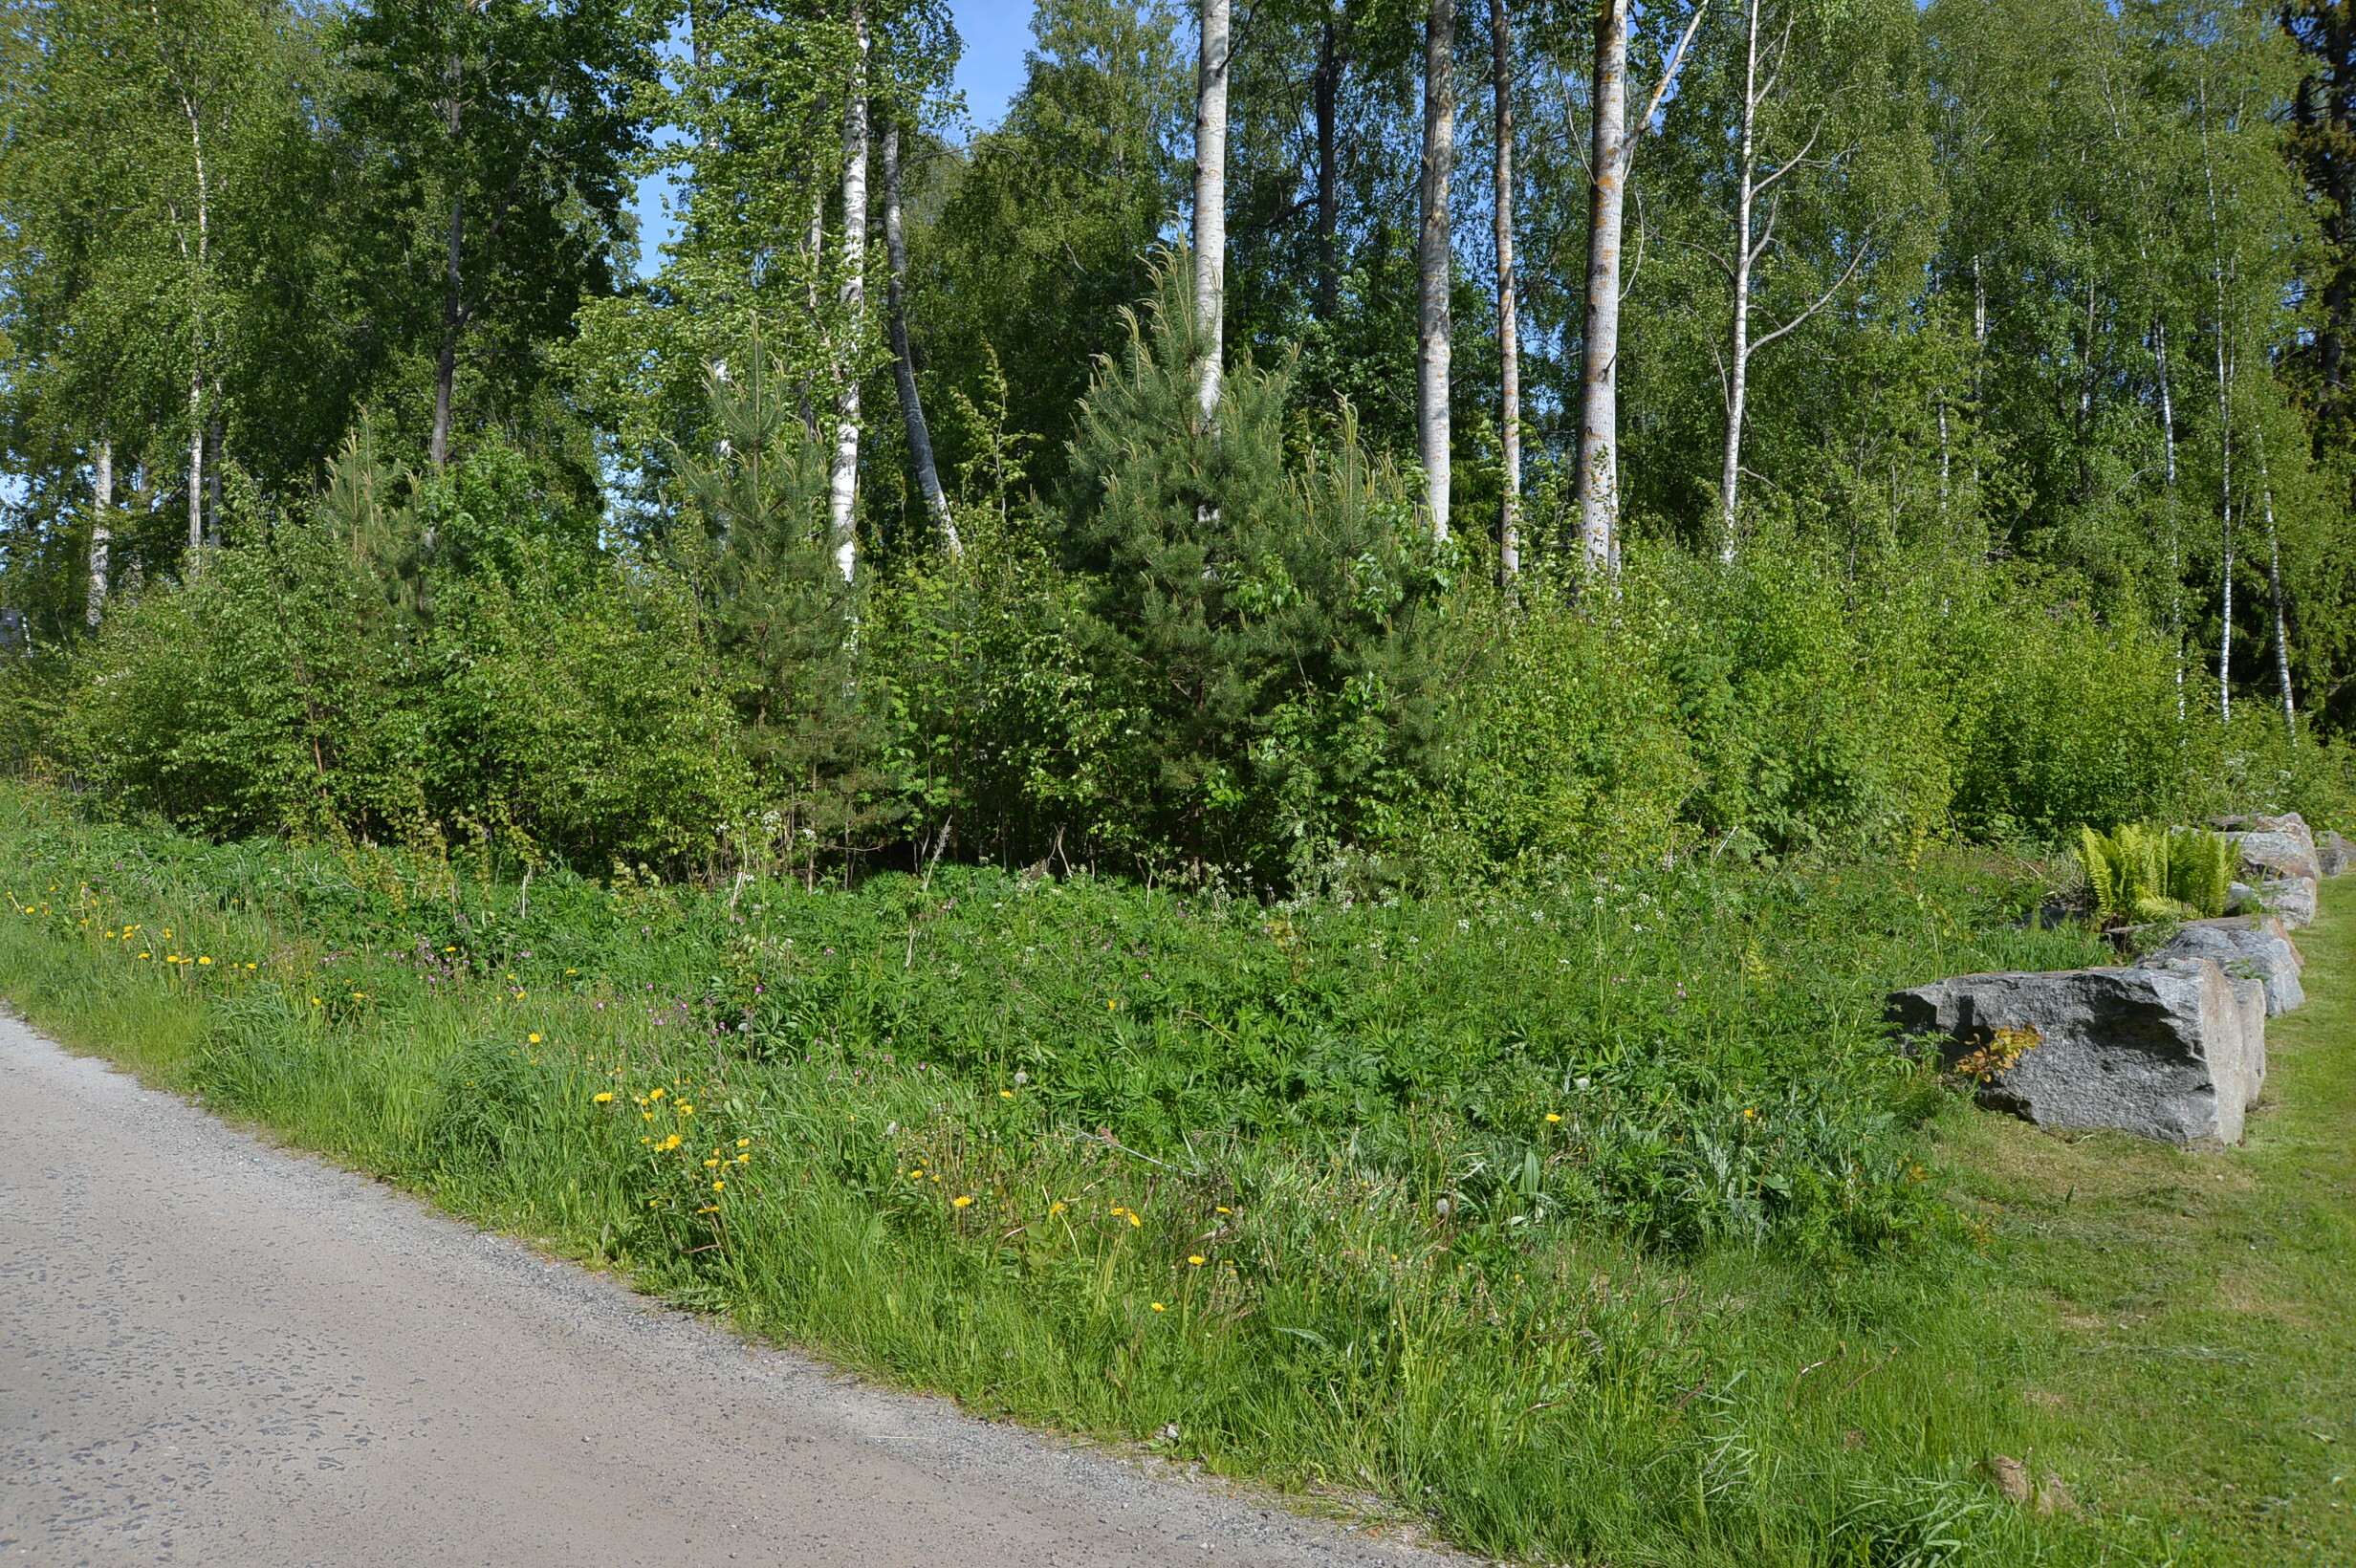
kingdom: Plantae
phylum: Tracheophyta
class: Magnoliopsida
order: Fabales
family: Fabaceae
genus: Lupinus
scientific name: Lupinus polyphyllus
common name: Garden lupin
